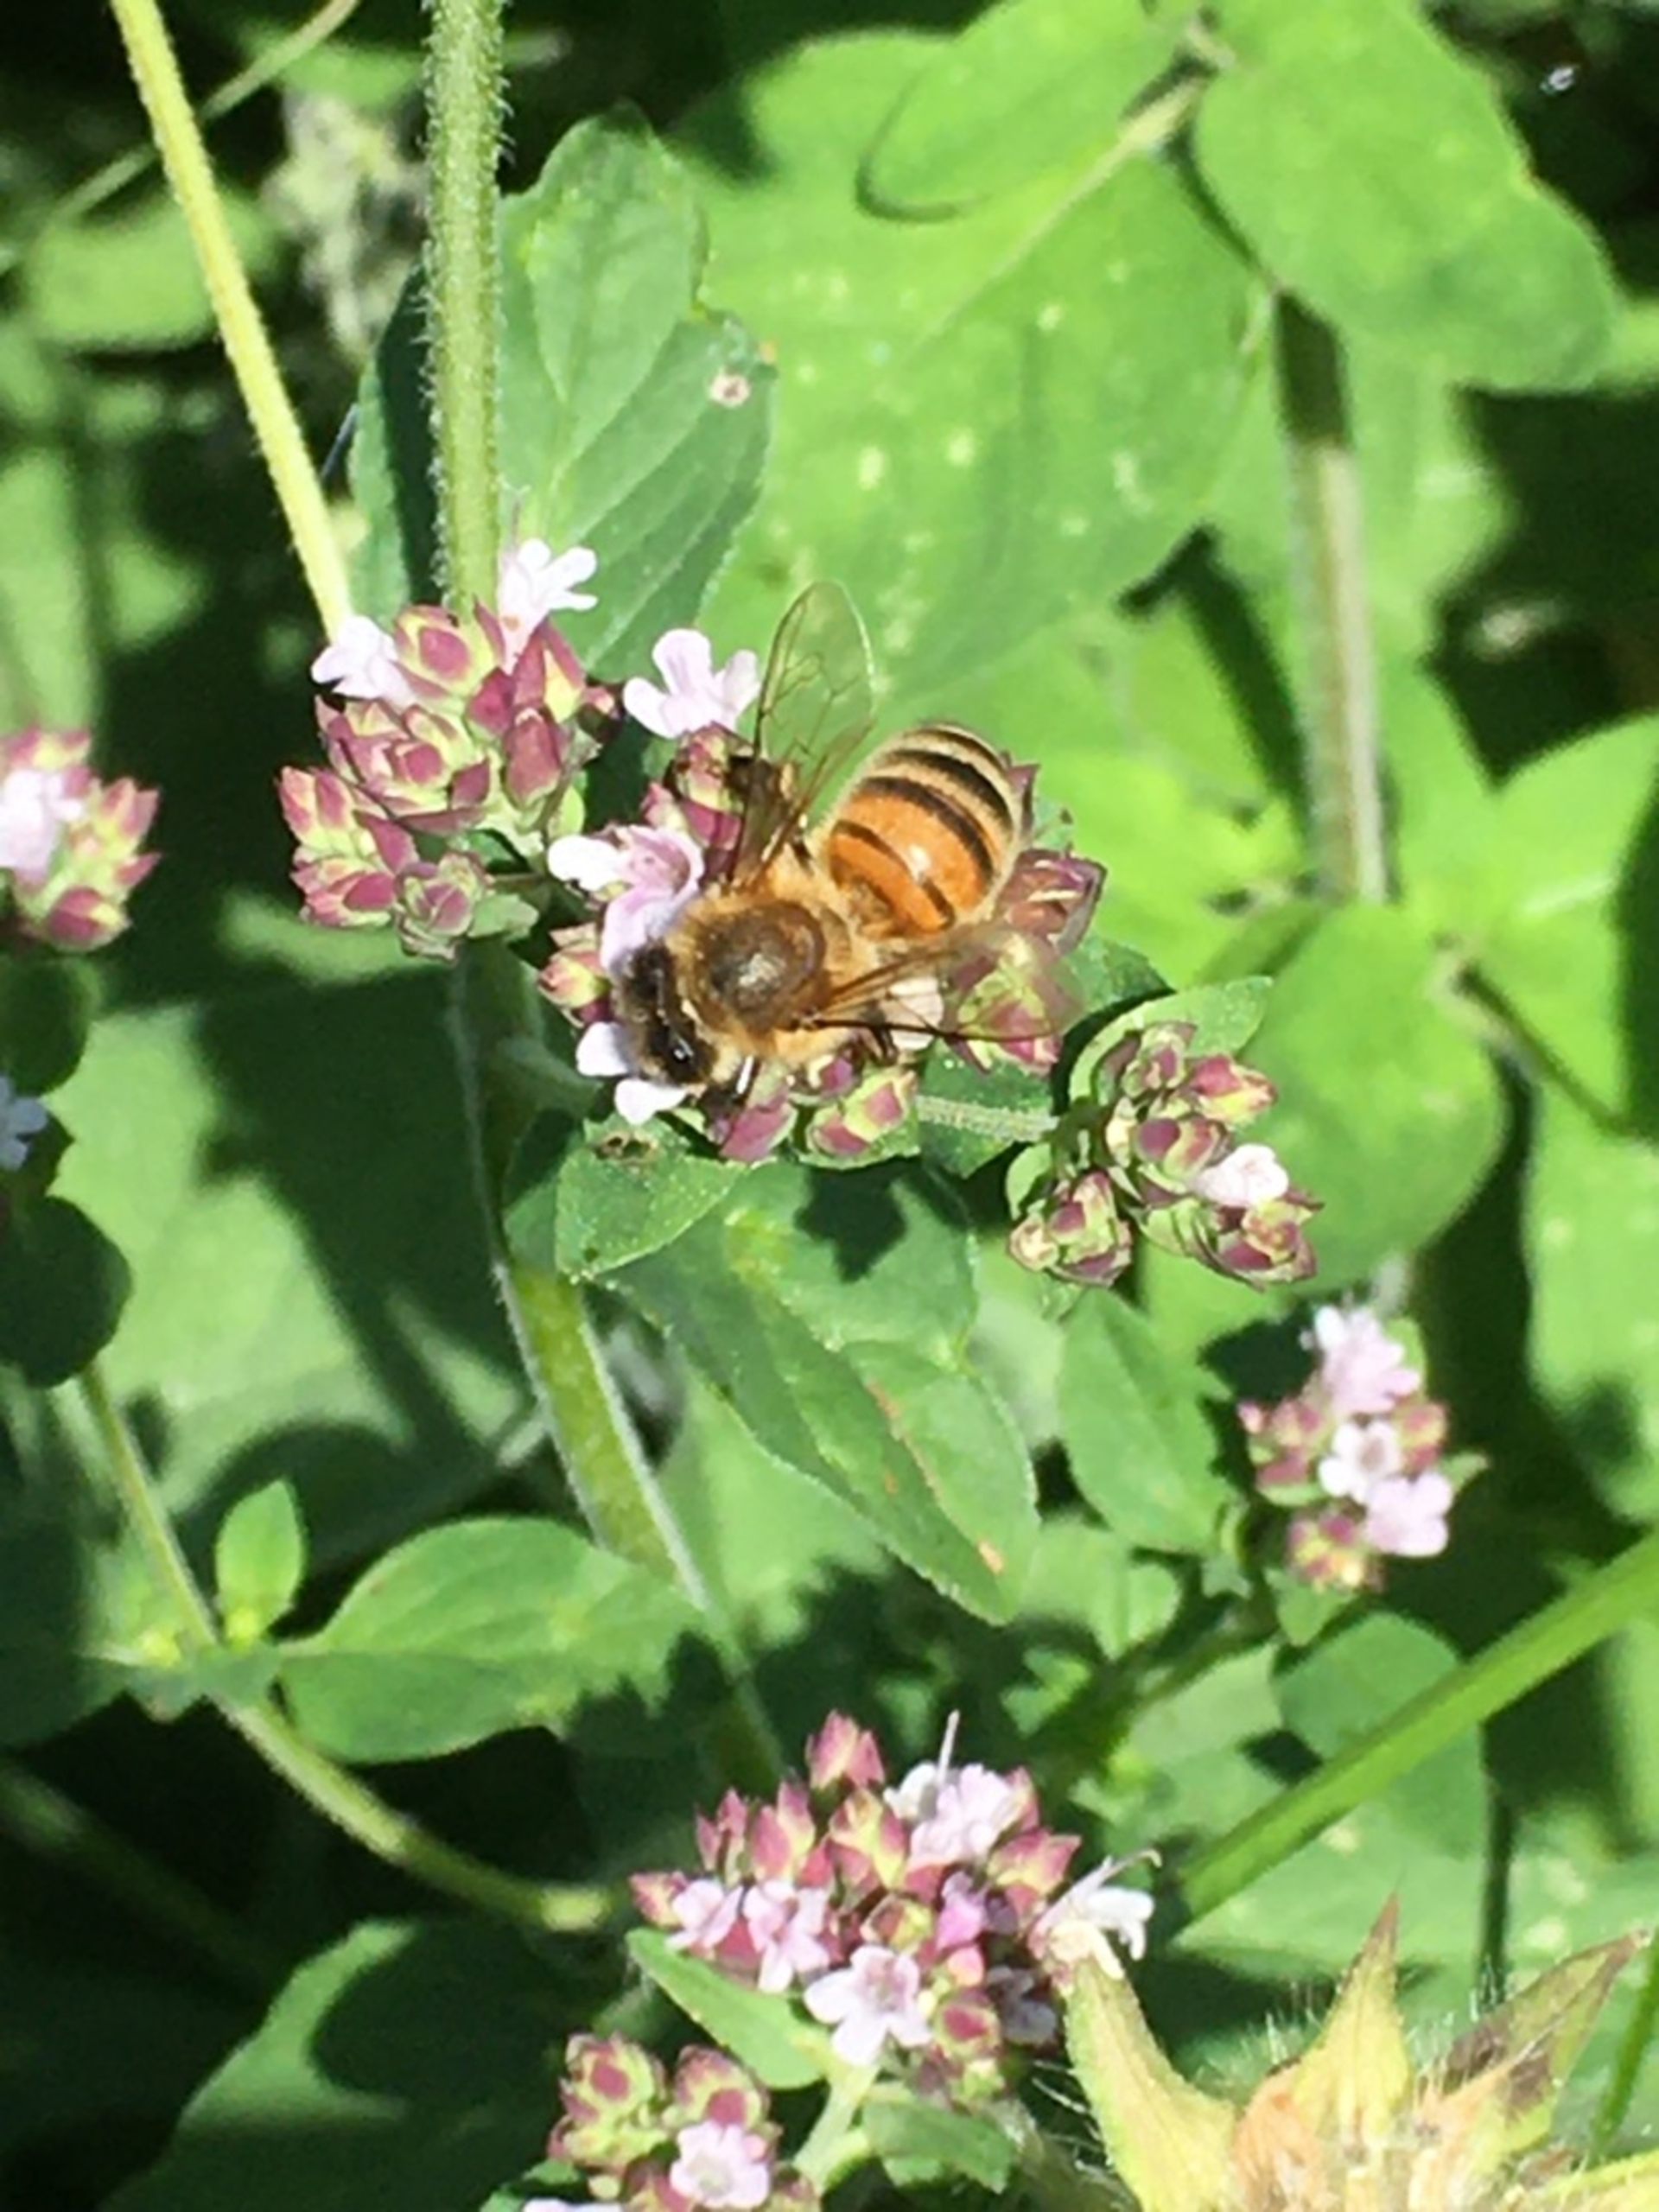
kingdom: Animalia
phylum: Arthropoda
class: Insecta
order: Hymenoptera
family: Apidae
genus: Apis
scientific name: Apis mellifera
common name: Honningbi
